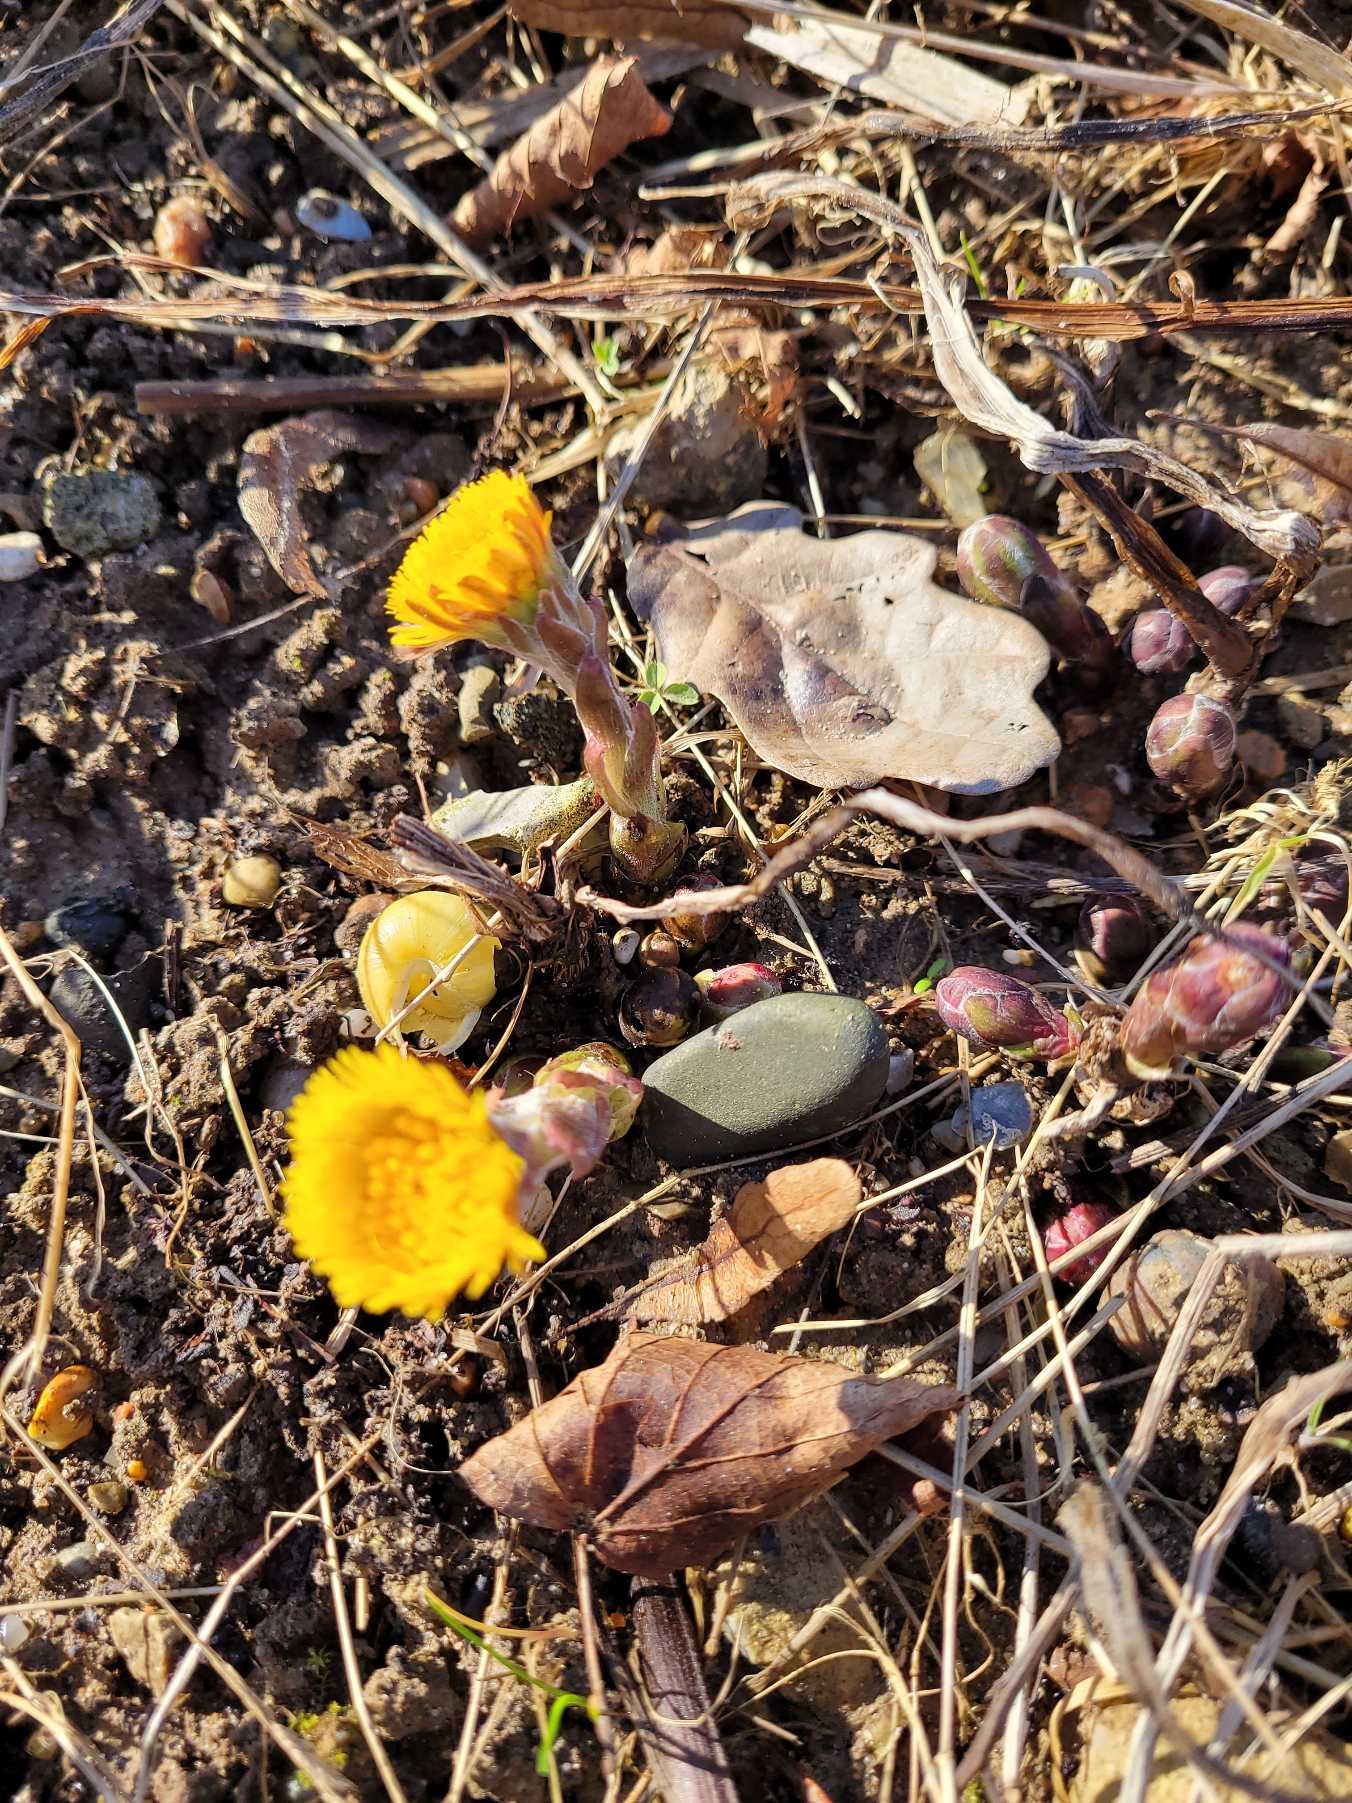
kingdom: Plantae
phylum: Tracheophyta
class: Magnoliopsida
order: Asterales
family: Asteraceae
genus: Tussilago
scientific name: Tussilago farfara
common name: Følfod
